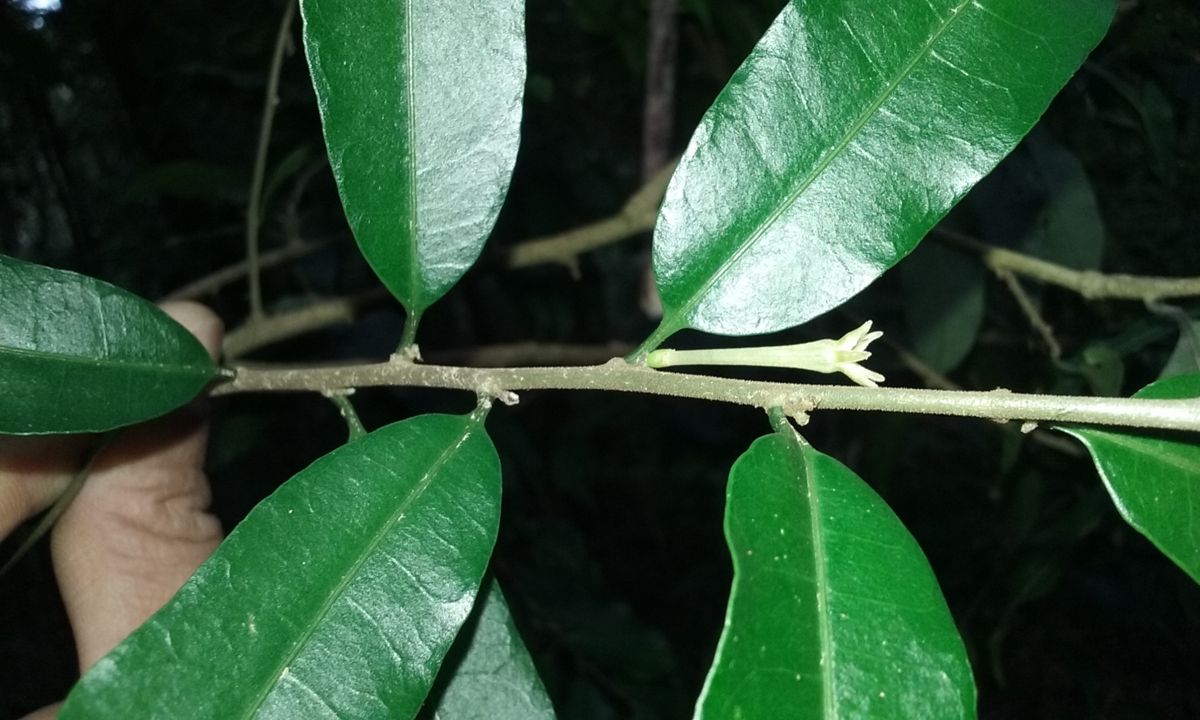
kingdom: Plantae
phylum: Tracheophyta
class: Magnoliopsida
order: Solanales
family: Solanaceae
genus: Cestrum
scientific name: Cestrum
